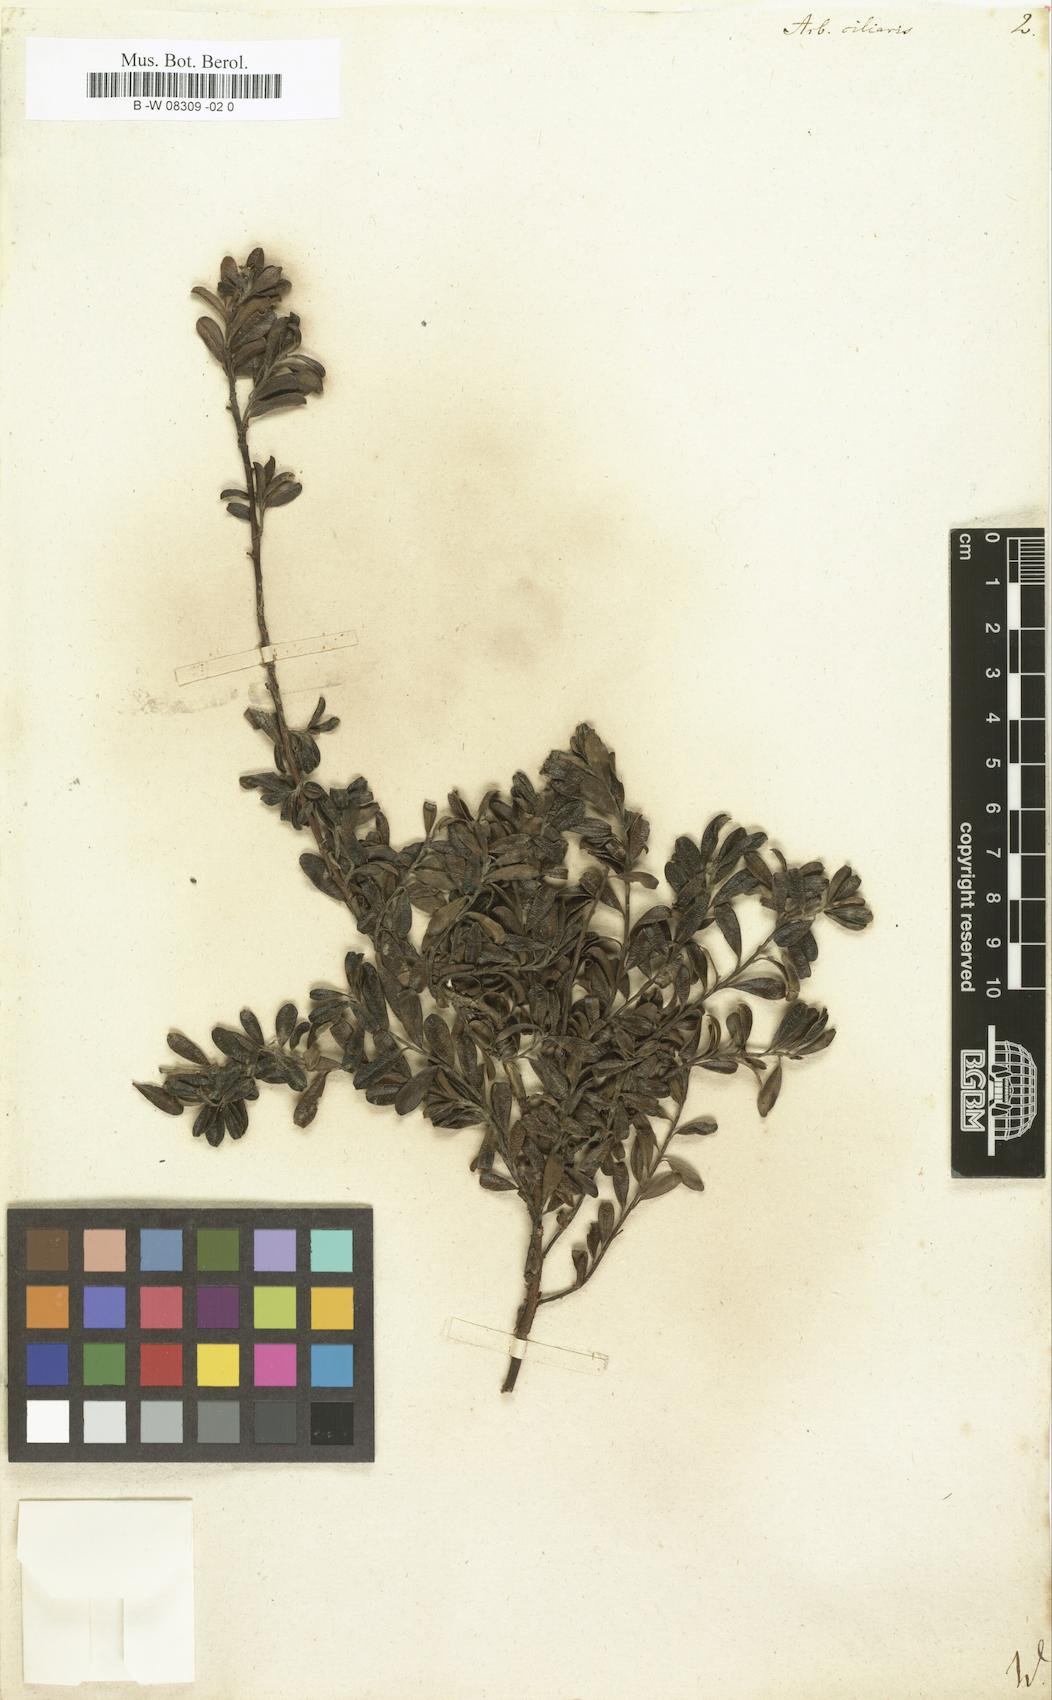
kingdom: Plantae
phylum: Tracheophyta
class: Magnoliopsida
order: Ericales
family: Ericaceae
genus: Arbutus
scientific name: Arbutus
